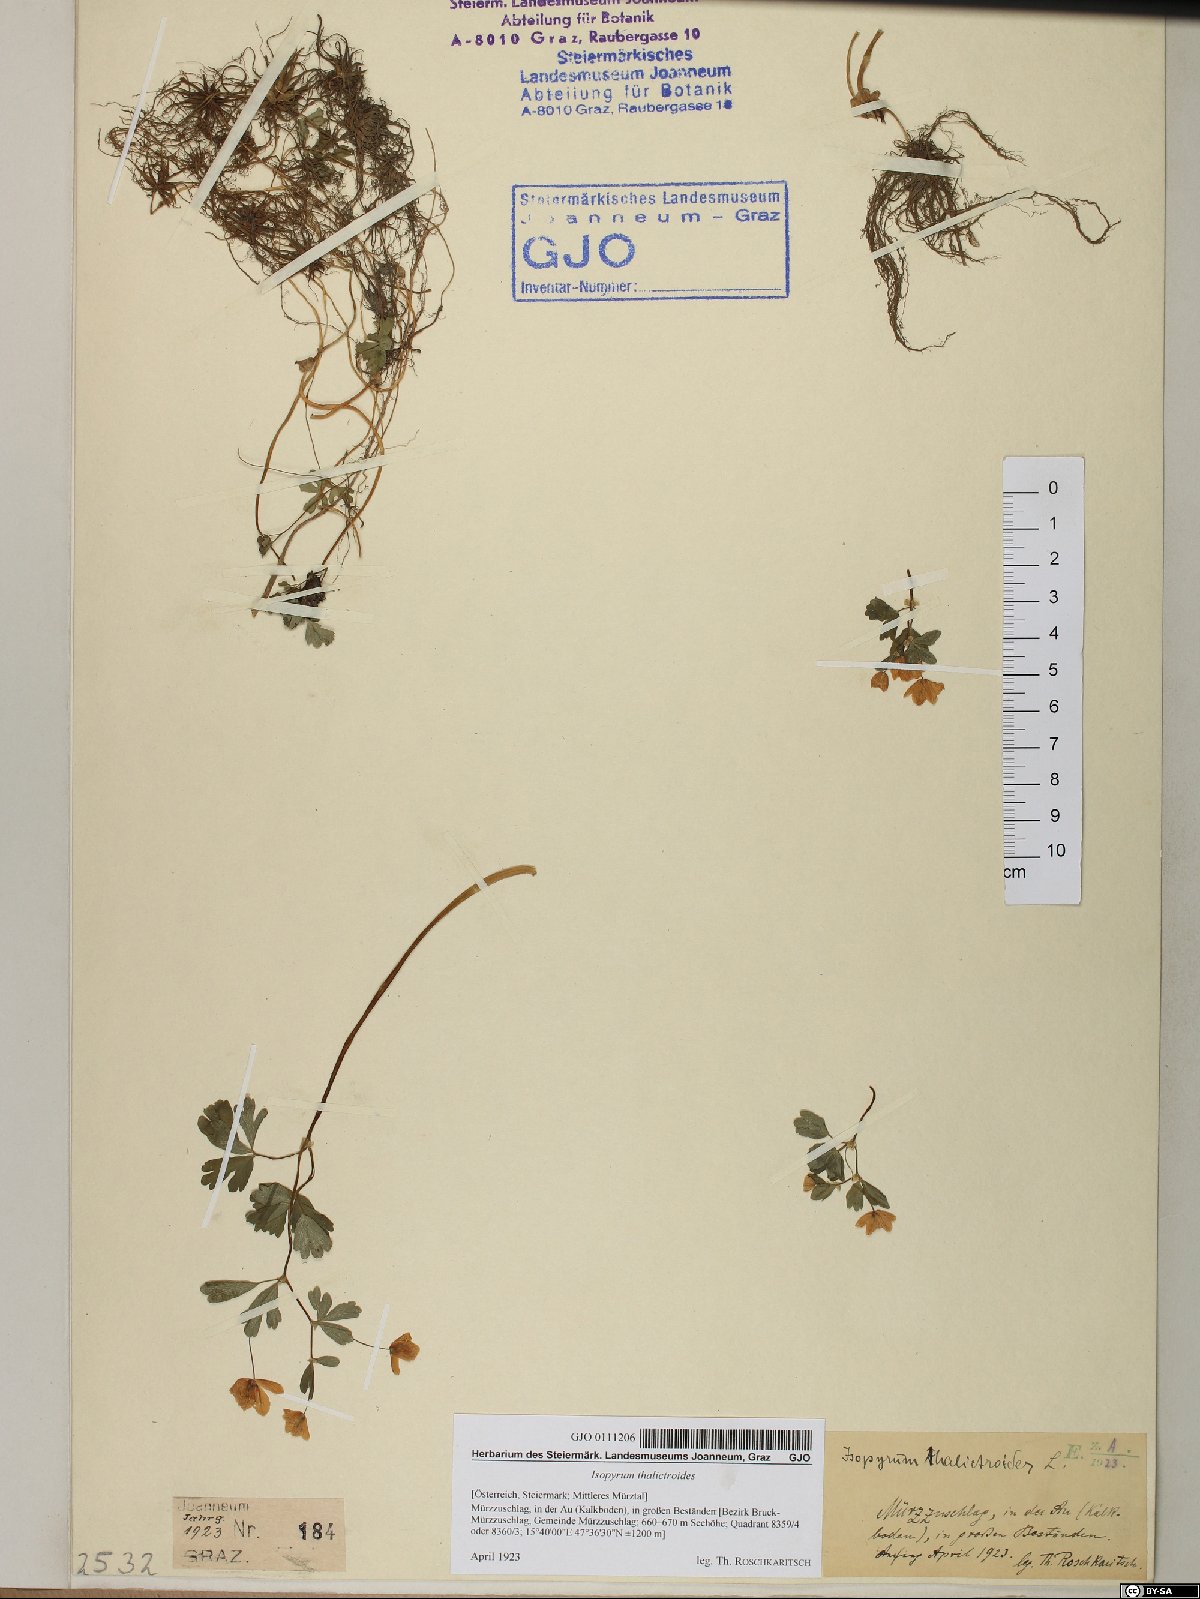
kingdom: Plantae
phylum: Tracheophyta
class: Magnoliopsida
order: Ranunculales
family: Ranunculaceae
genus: Isopyrum
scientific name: Isopyrum thalictroides
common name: Isopyrum
